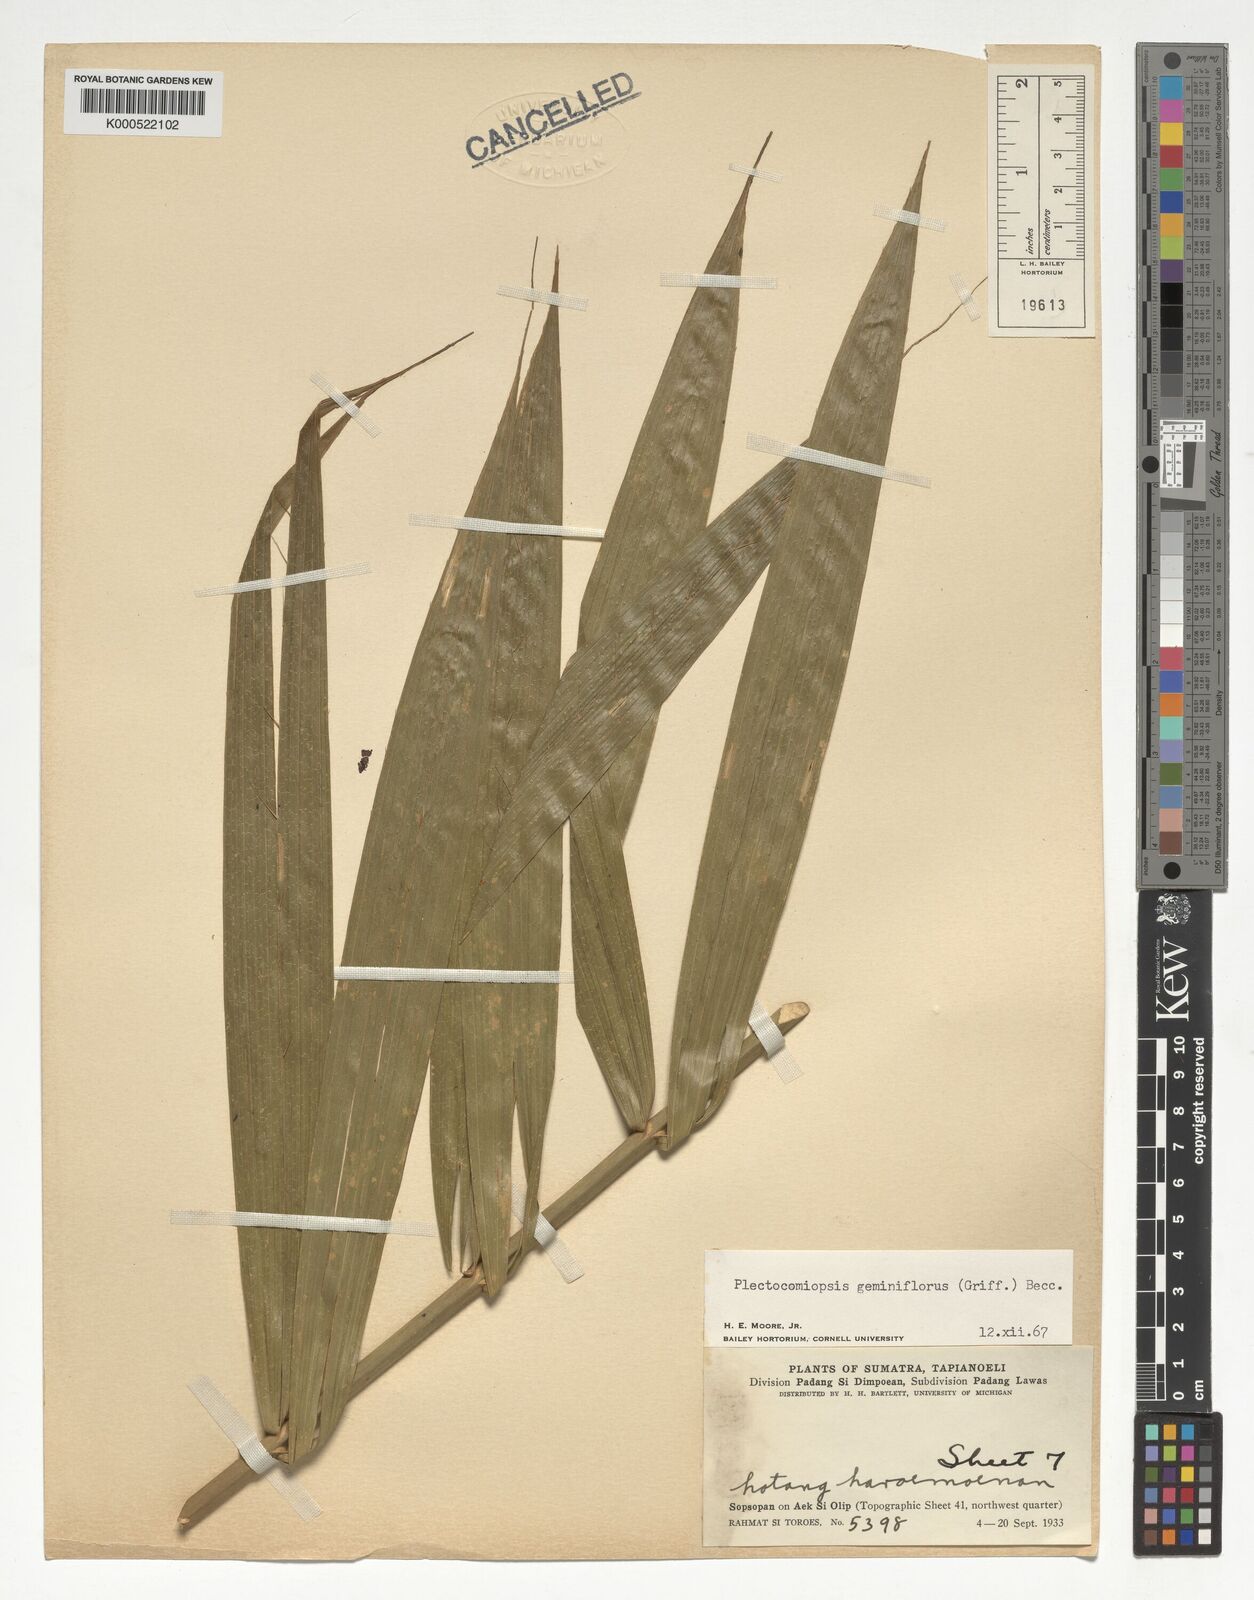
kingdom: Plantae
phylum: Tracheophyta
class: Liliopsida
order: Arecales
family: Arecaceae
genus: Plectocomiopsis
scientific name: Plectocomiopsis geminiflora
